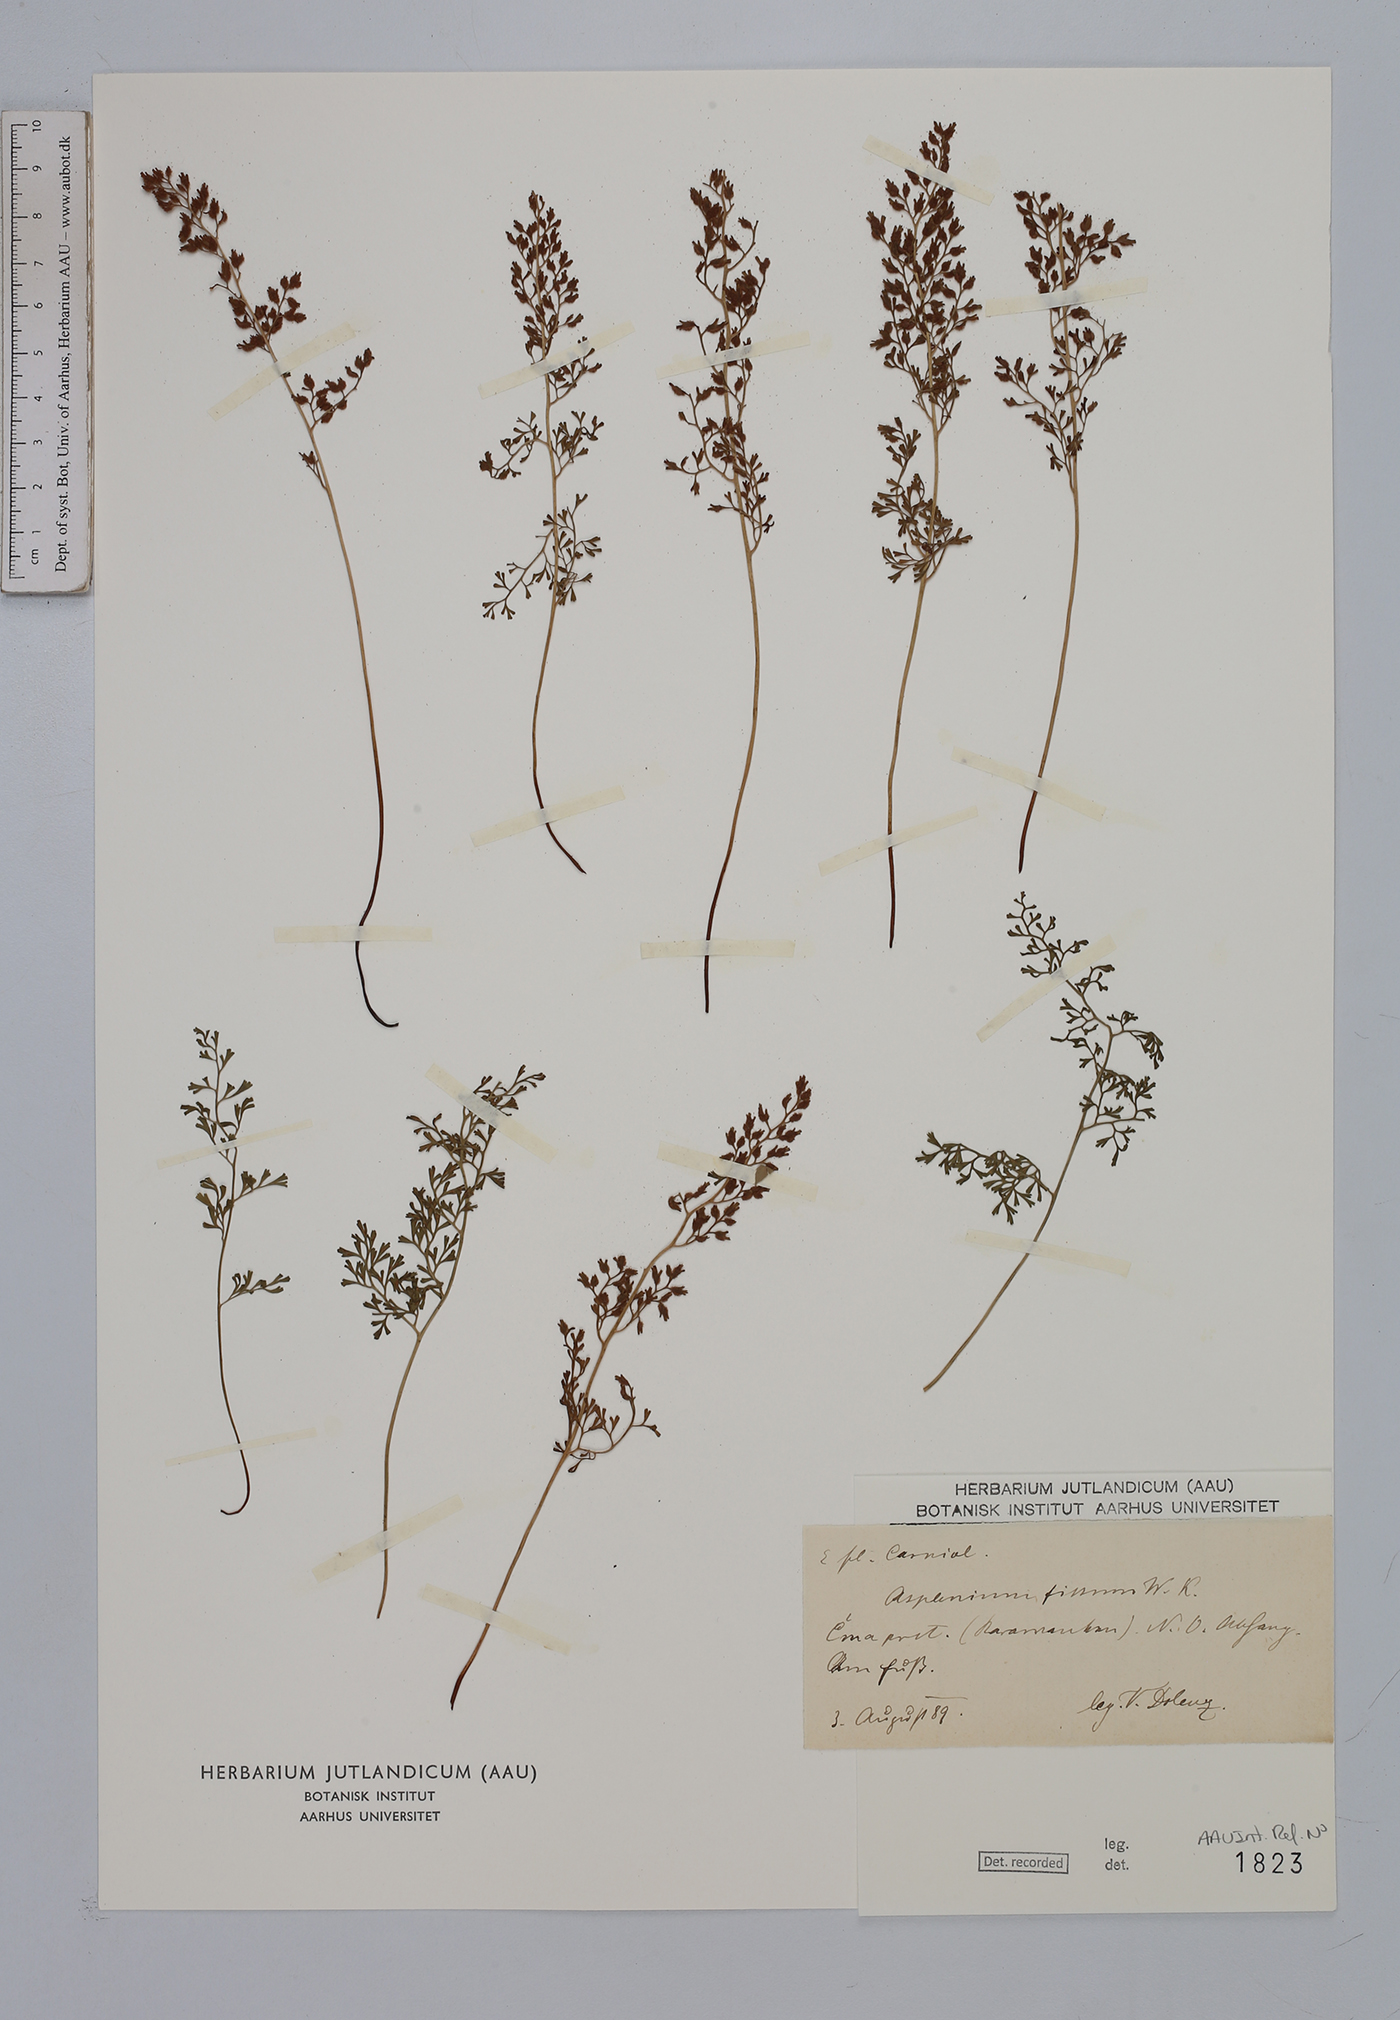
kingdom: Plantae
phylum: Tracheophyta
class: Polypodiopsida
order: Polypodiales
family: Aspleniaceae
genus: Asplenium
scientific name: Asplenium fissum
